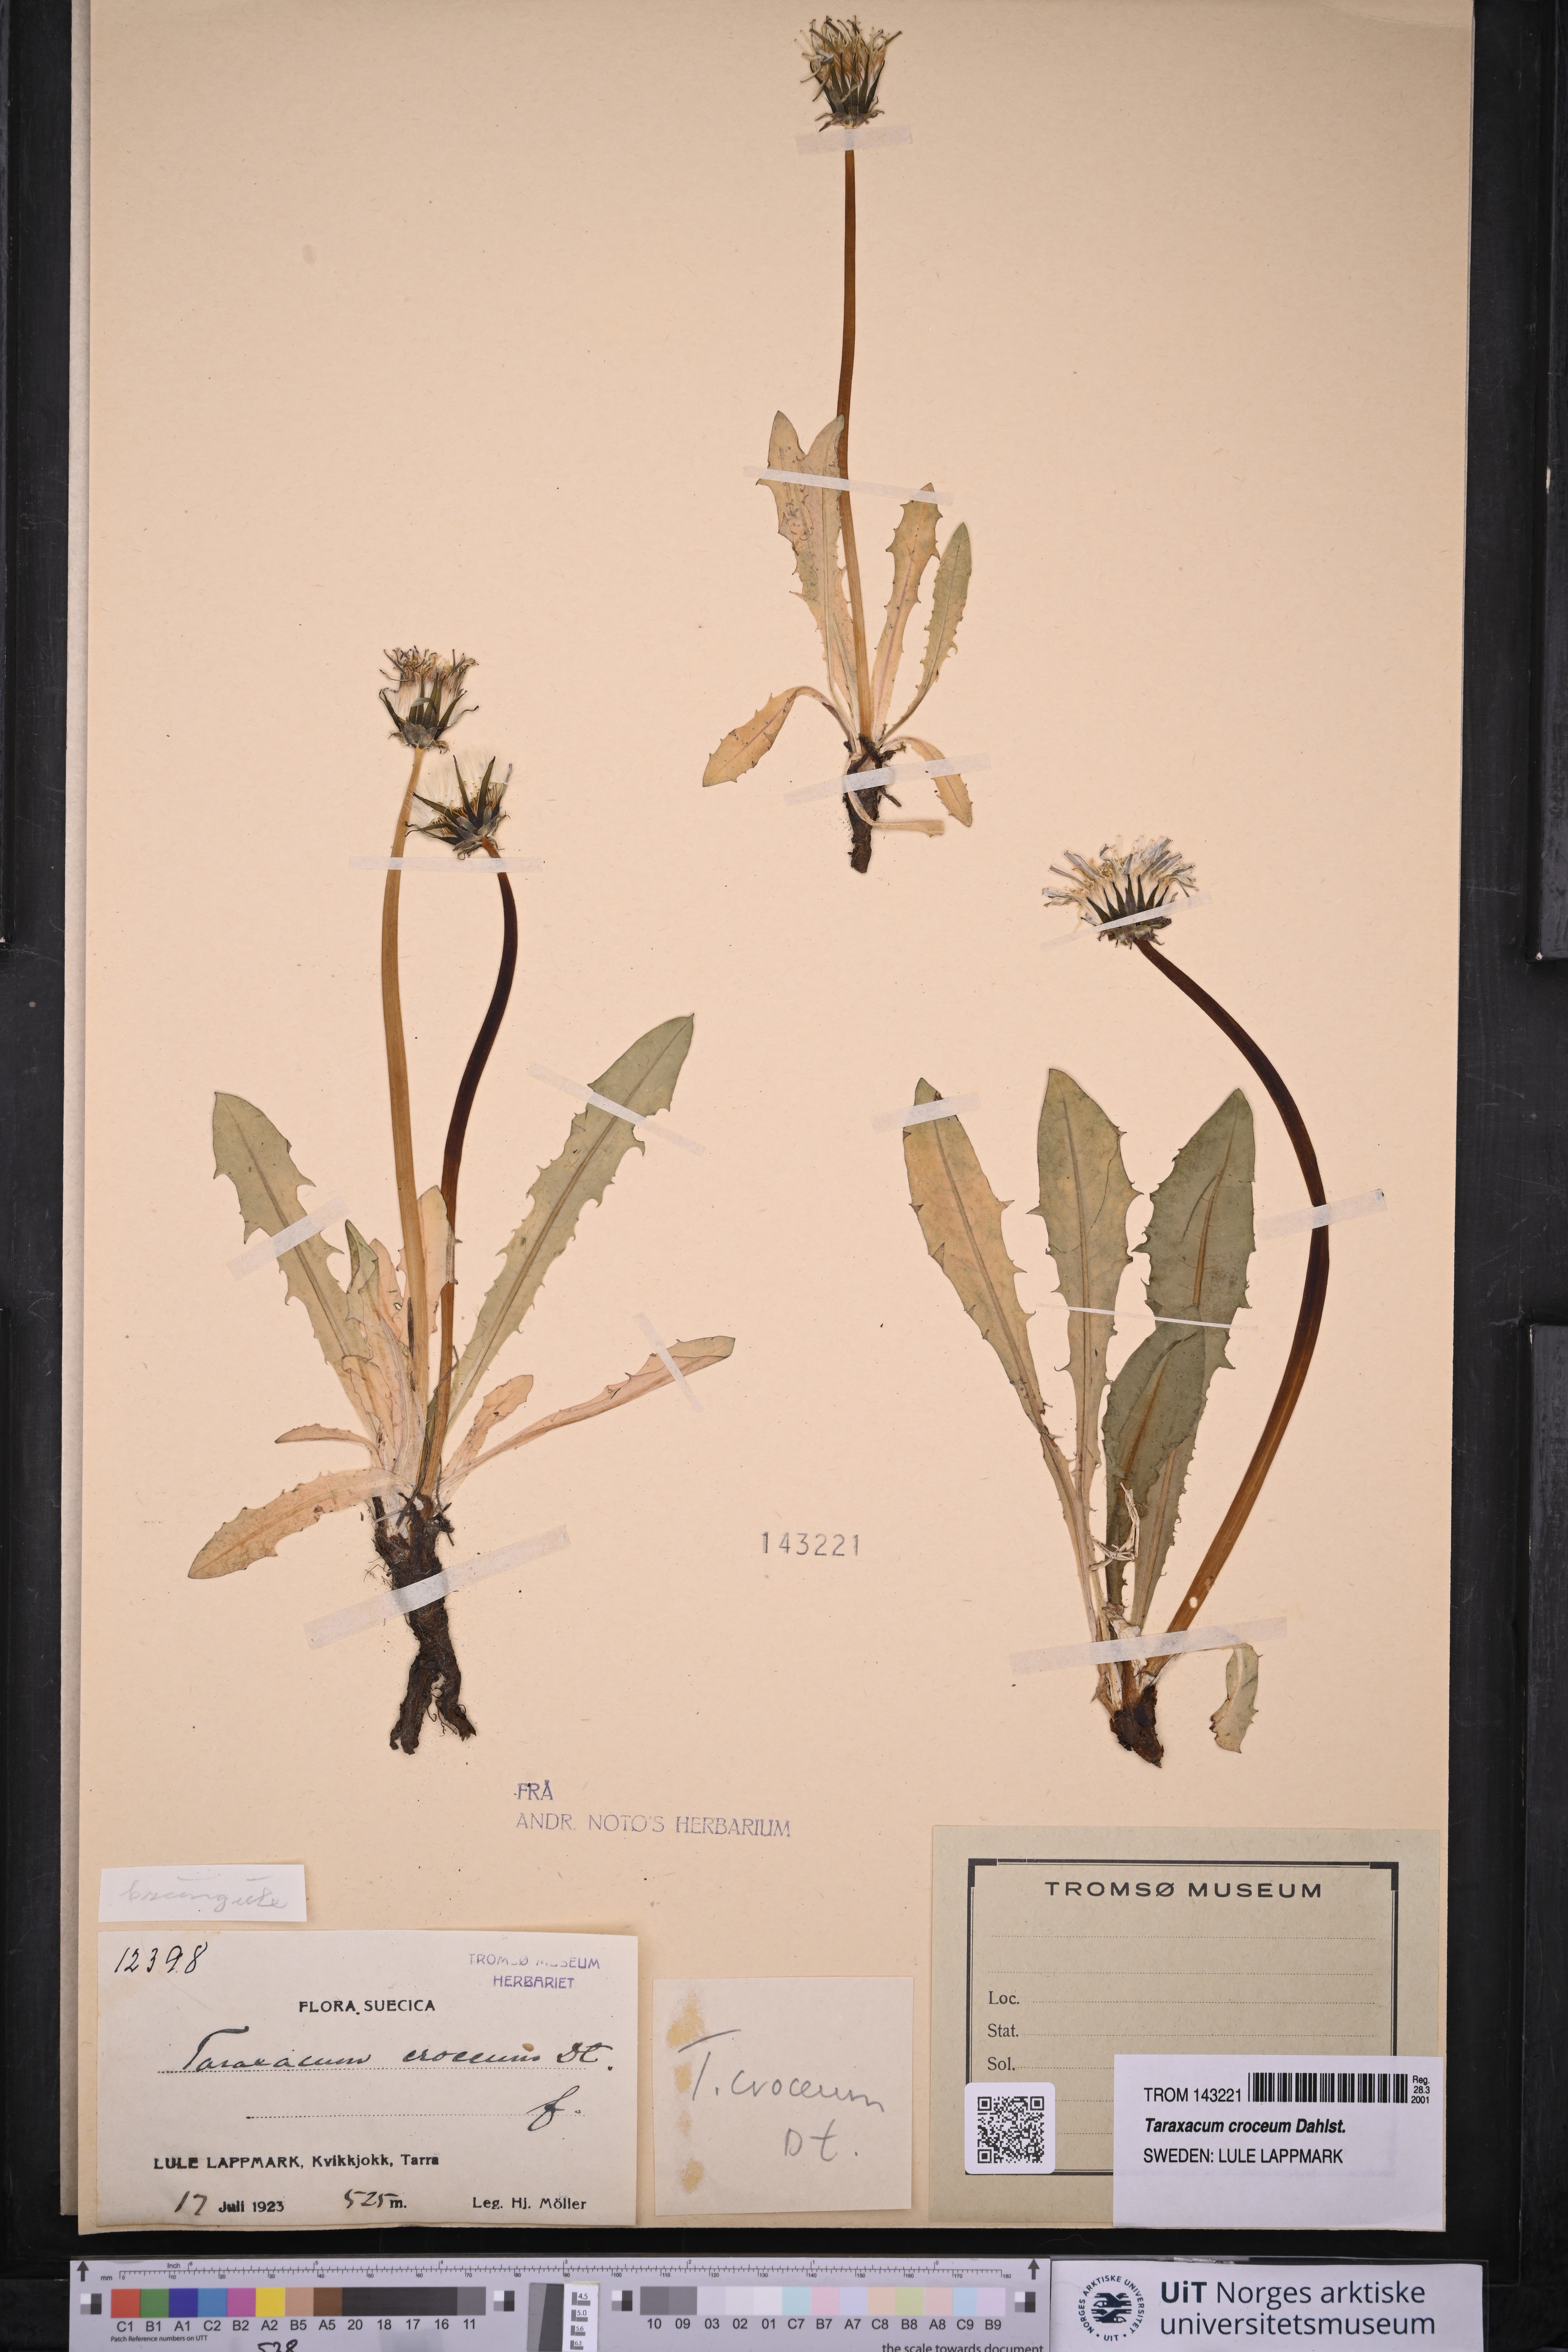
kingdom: Plantae
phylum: Tracheophyta
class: Magnoliopsida
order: Asterales
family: Asteraceae
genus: Taraxacum
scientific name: Taraxacum croceum
